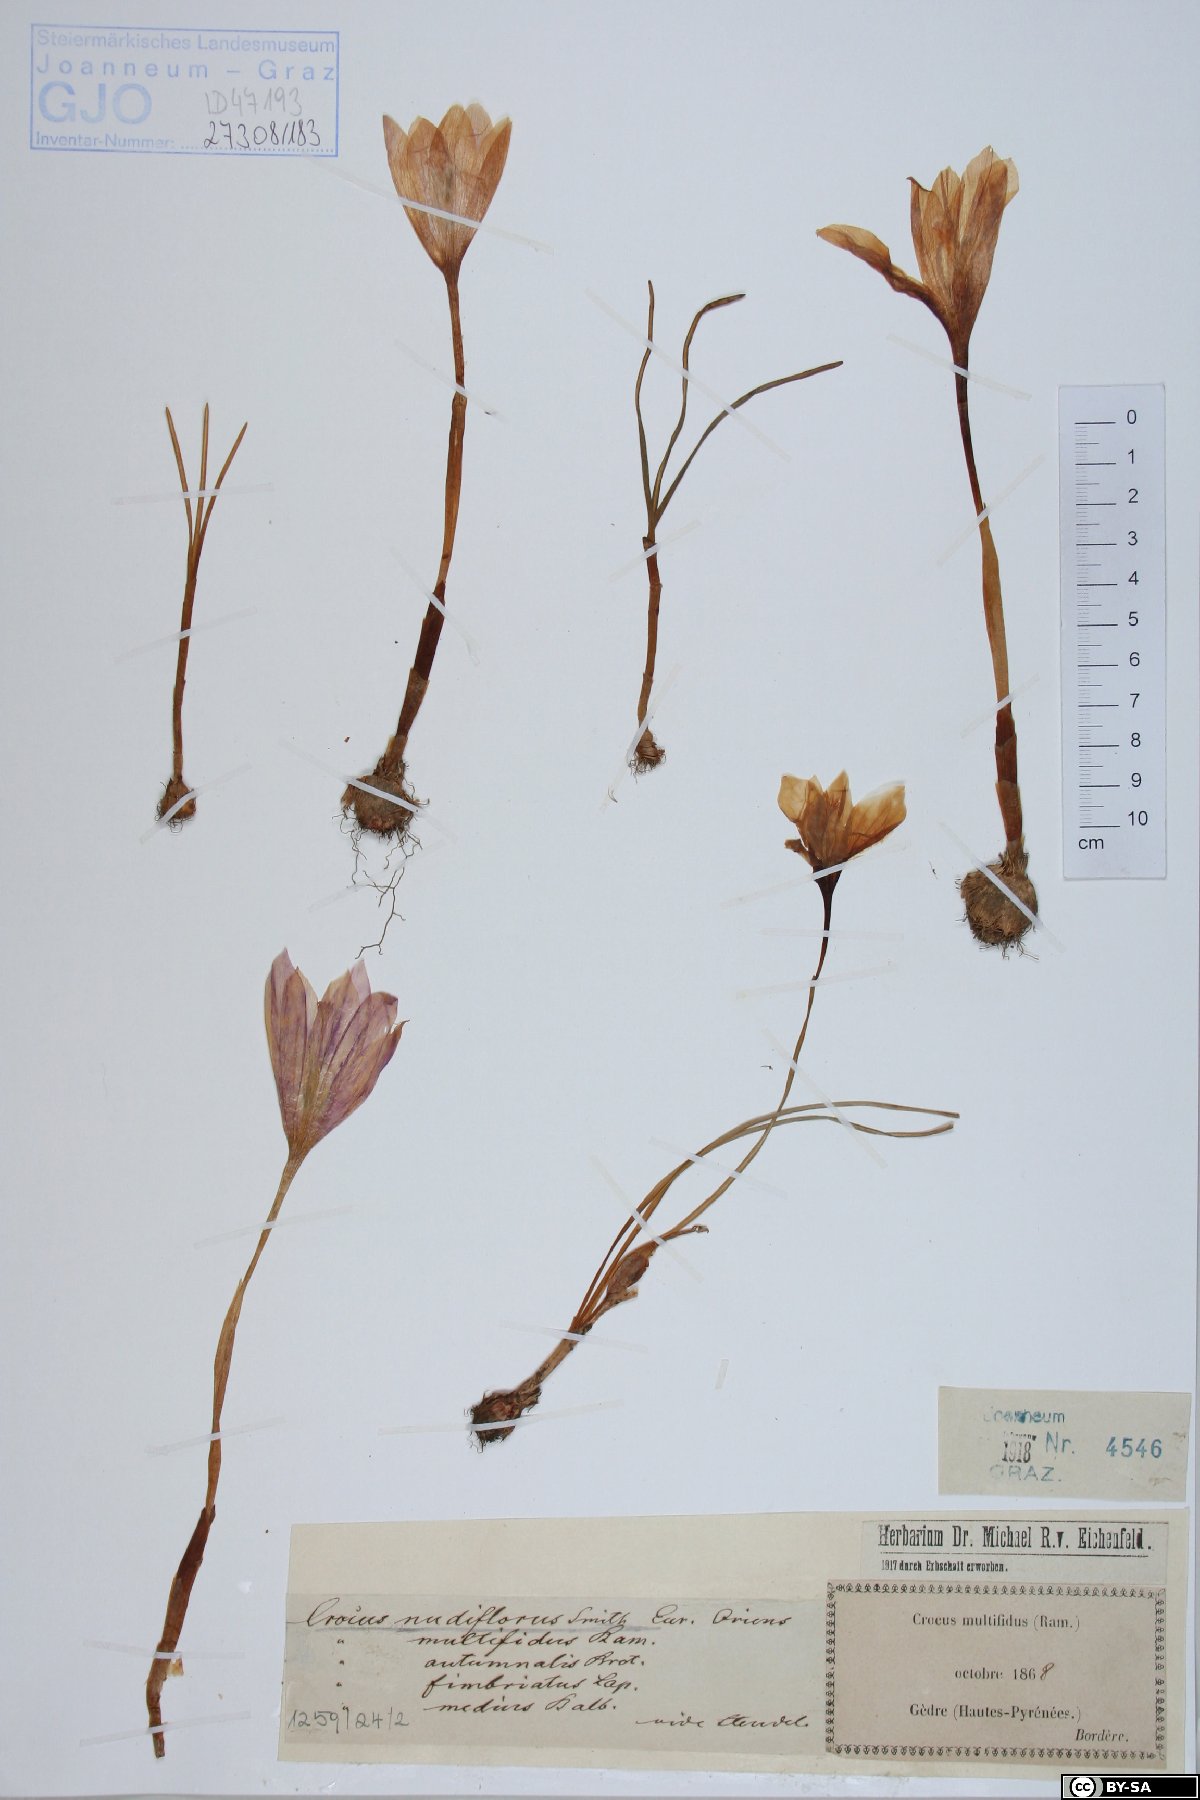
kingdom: Plantae
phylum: Tracheophyta
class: Liliopsida
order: Asparagales
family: Iridaceae
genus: Crocus
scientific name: Crocus nudiflorus
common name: Autumn crocus
